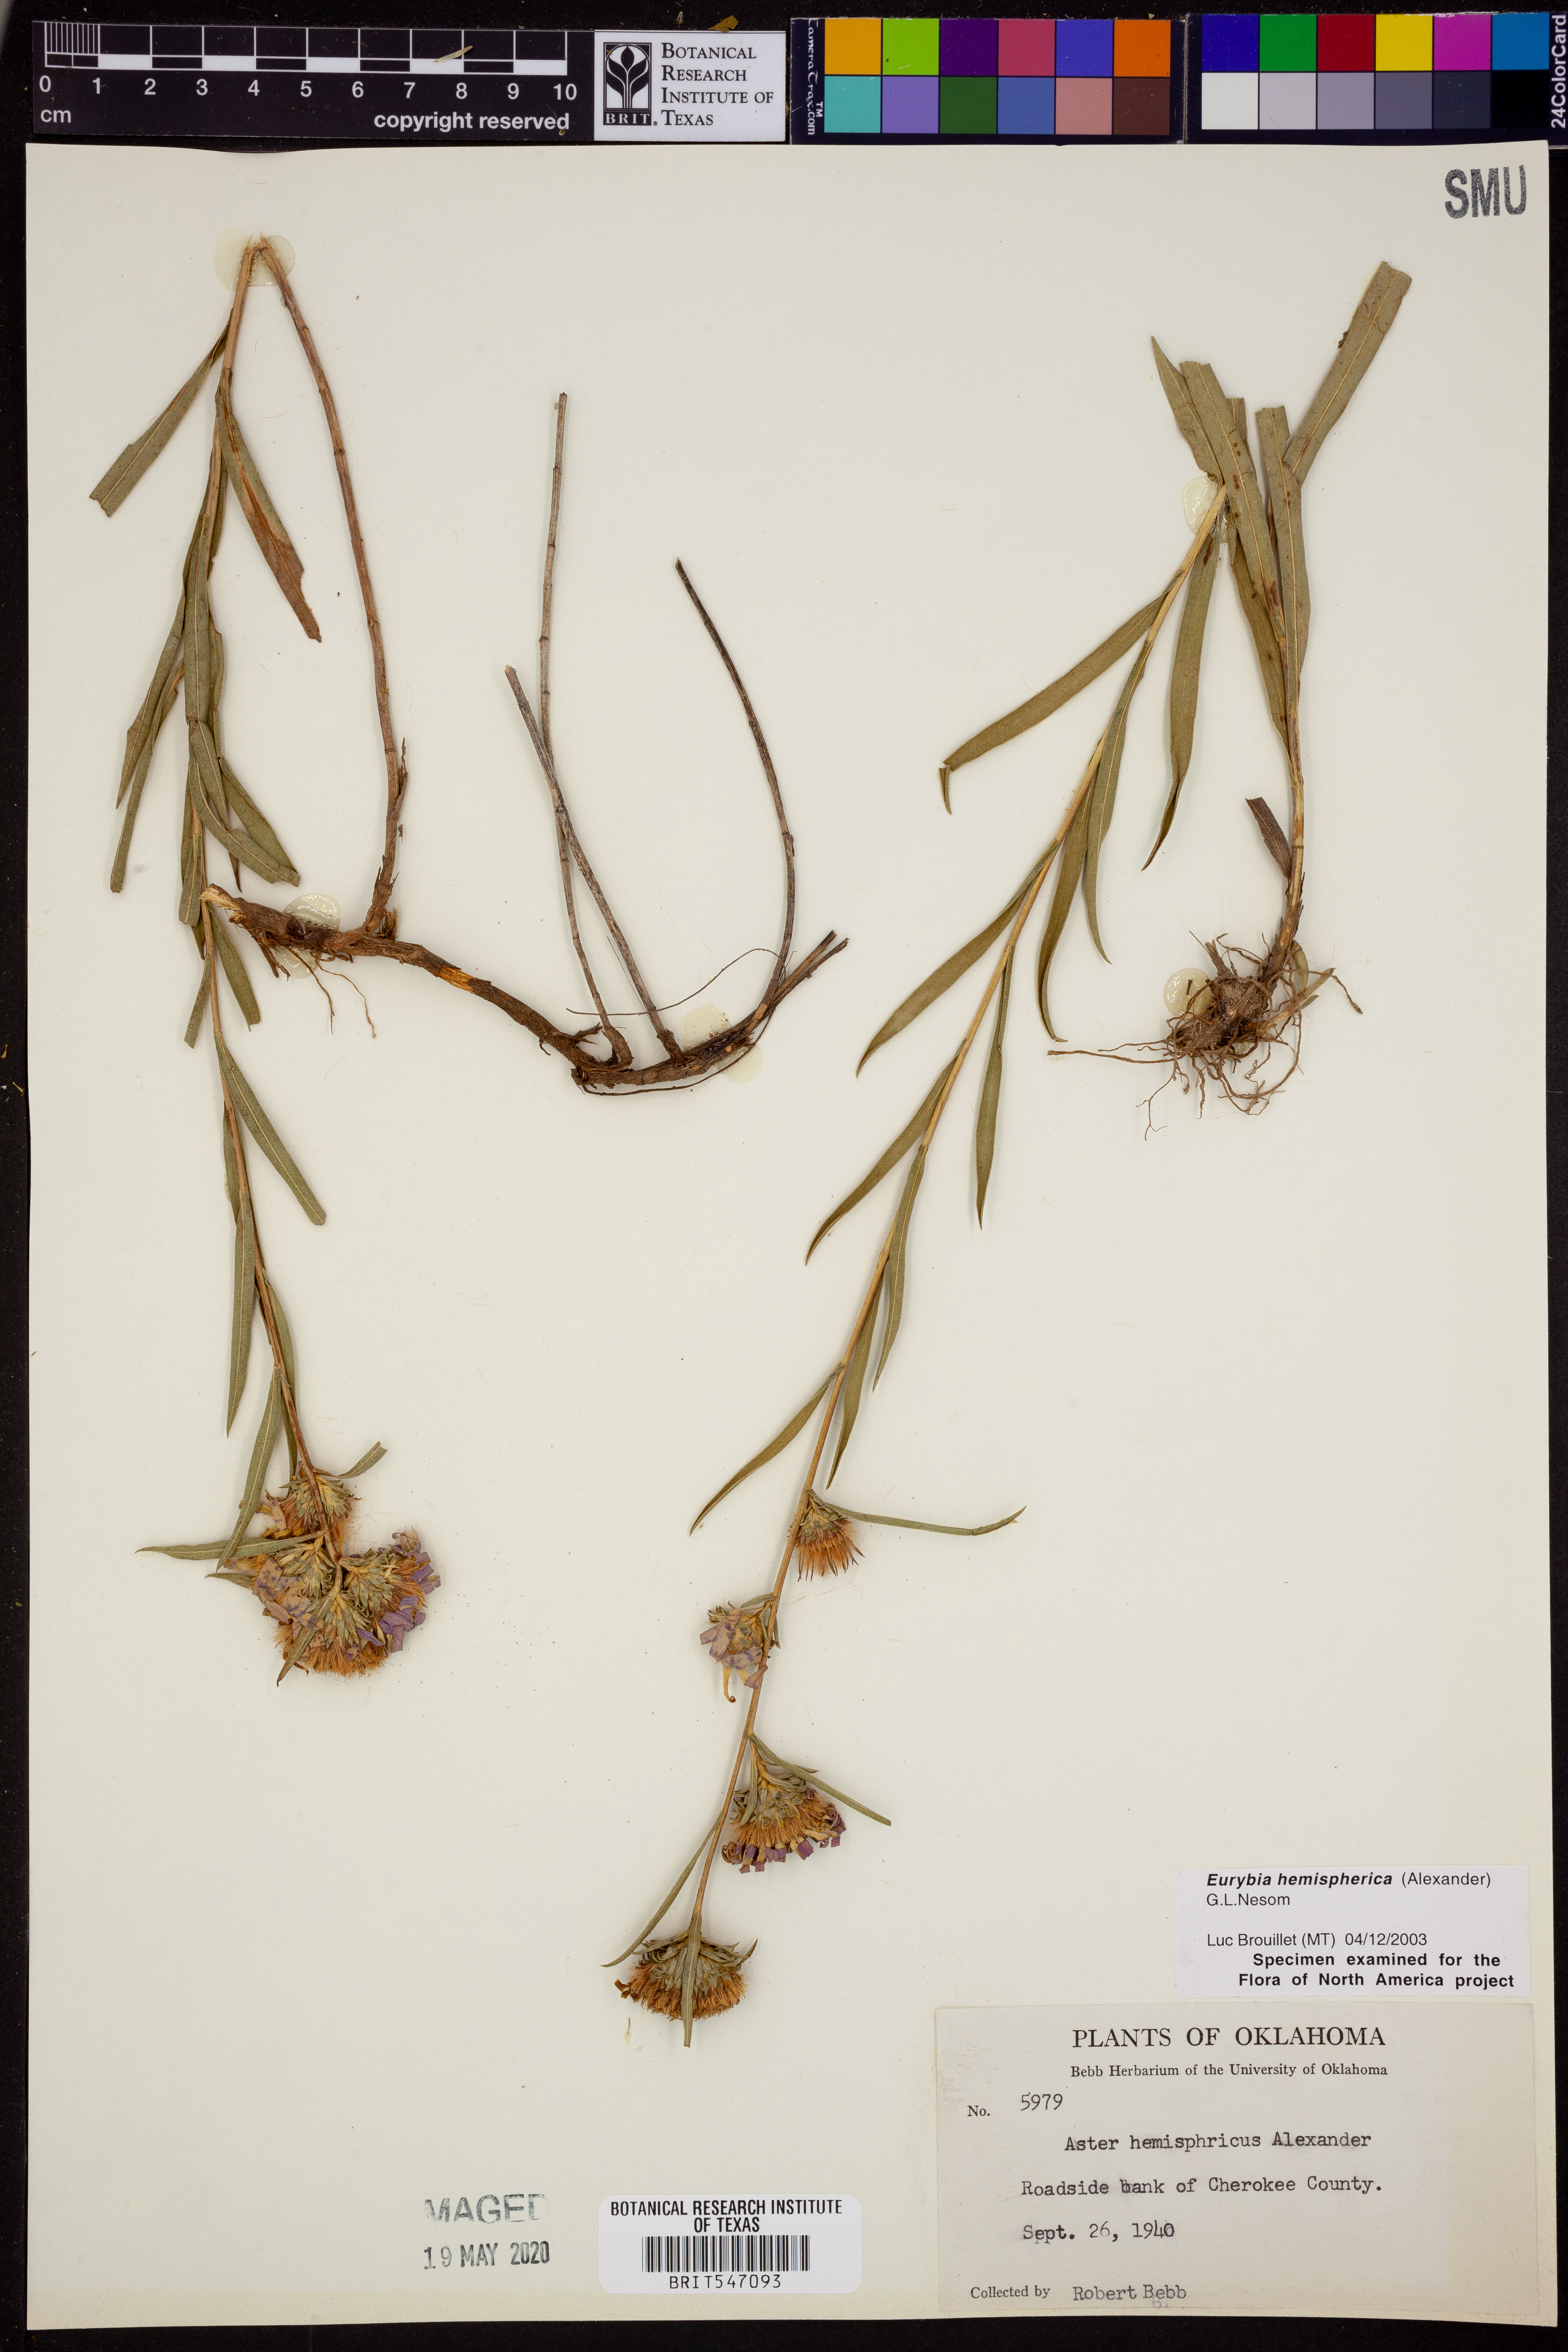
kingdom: Plantae
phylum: Tracheophyta
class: Magnoliopsida
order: Asterales
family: Asteraceae
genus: Eurybia
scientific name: Eurybia hemispherica
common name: Showy aster
